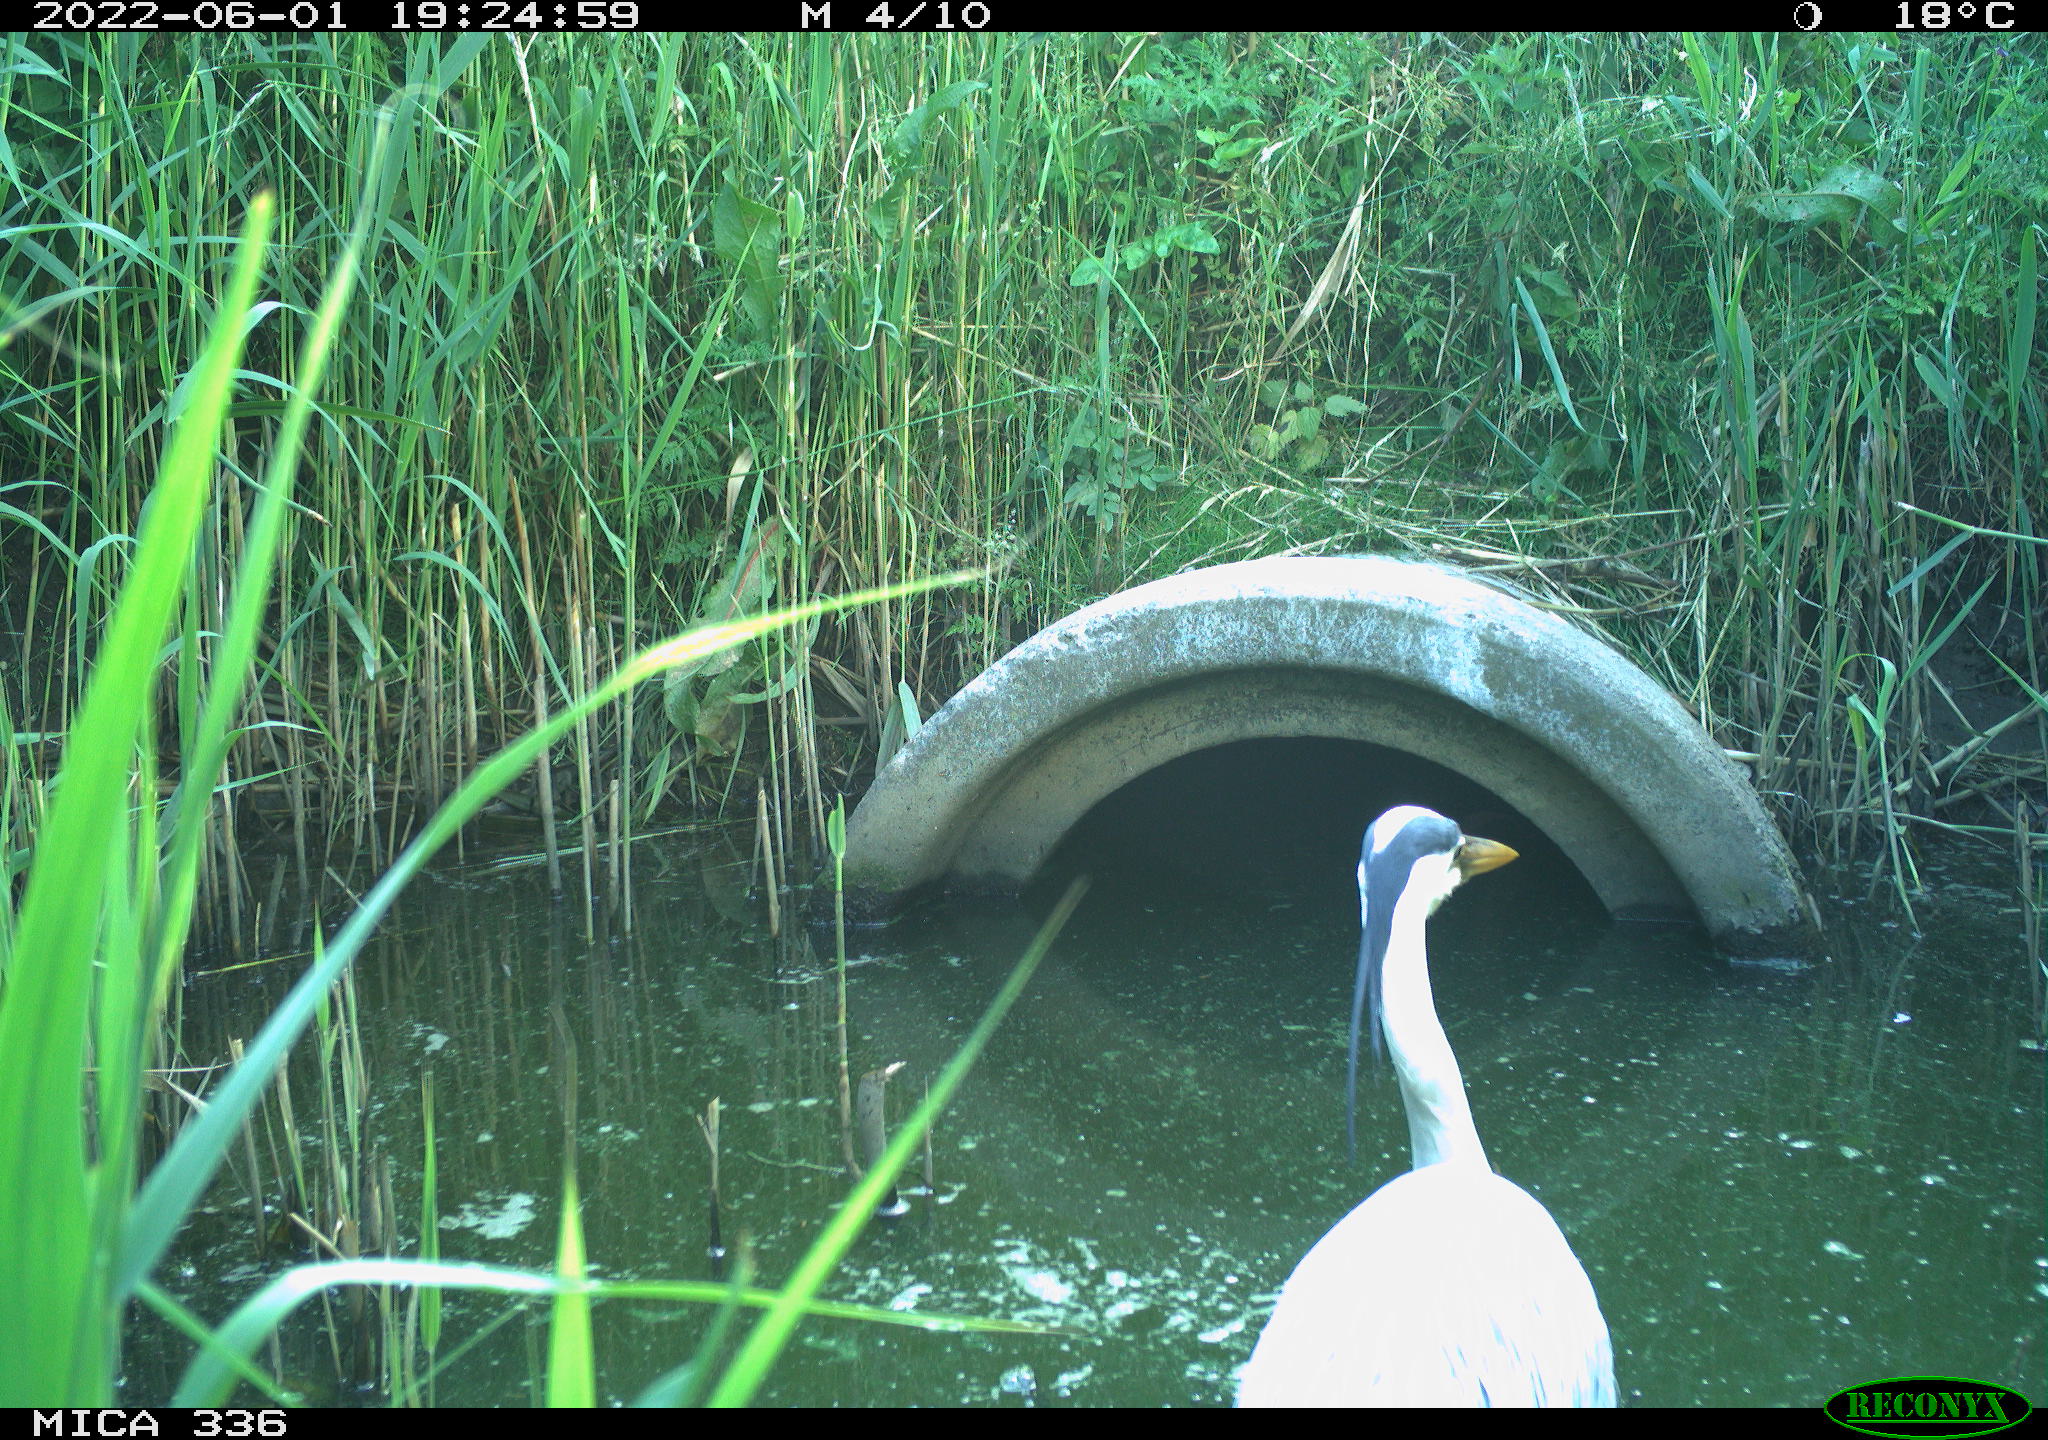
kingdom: Animalia
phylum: Chordata
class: Aves
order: Pelecaniformes
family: Ardeidae
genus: Ardea
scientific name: Ardea
